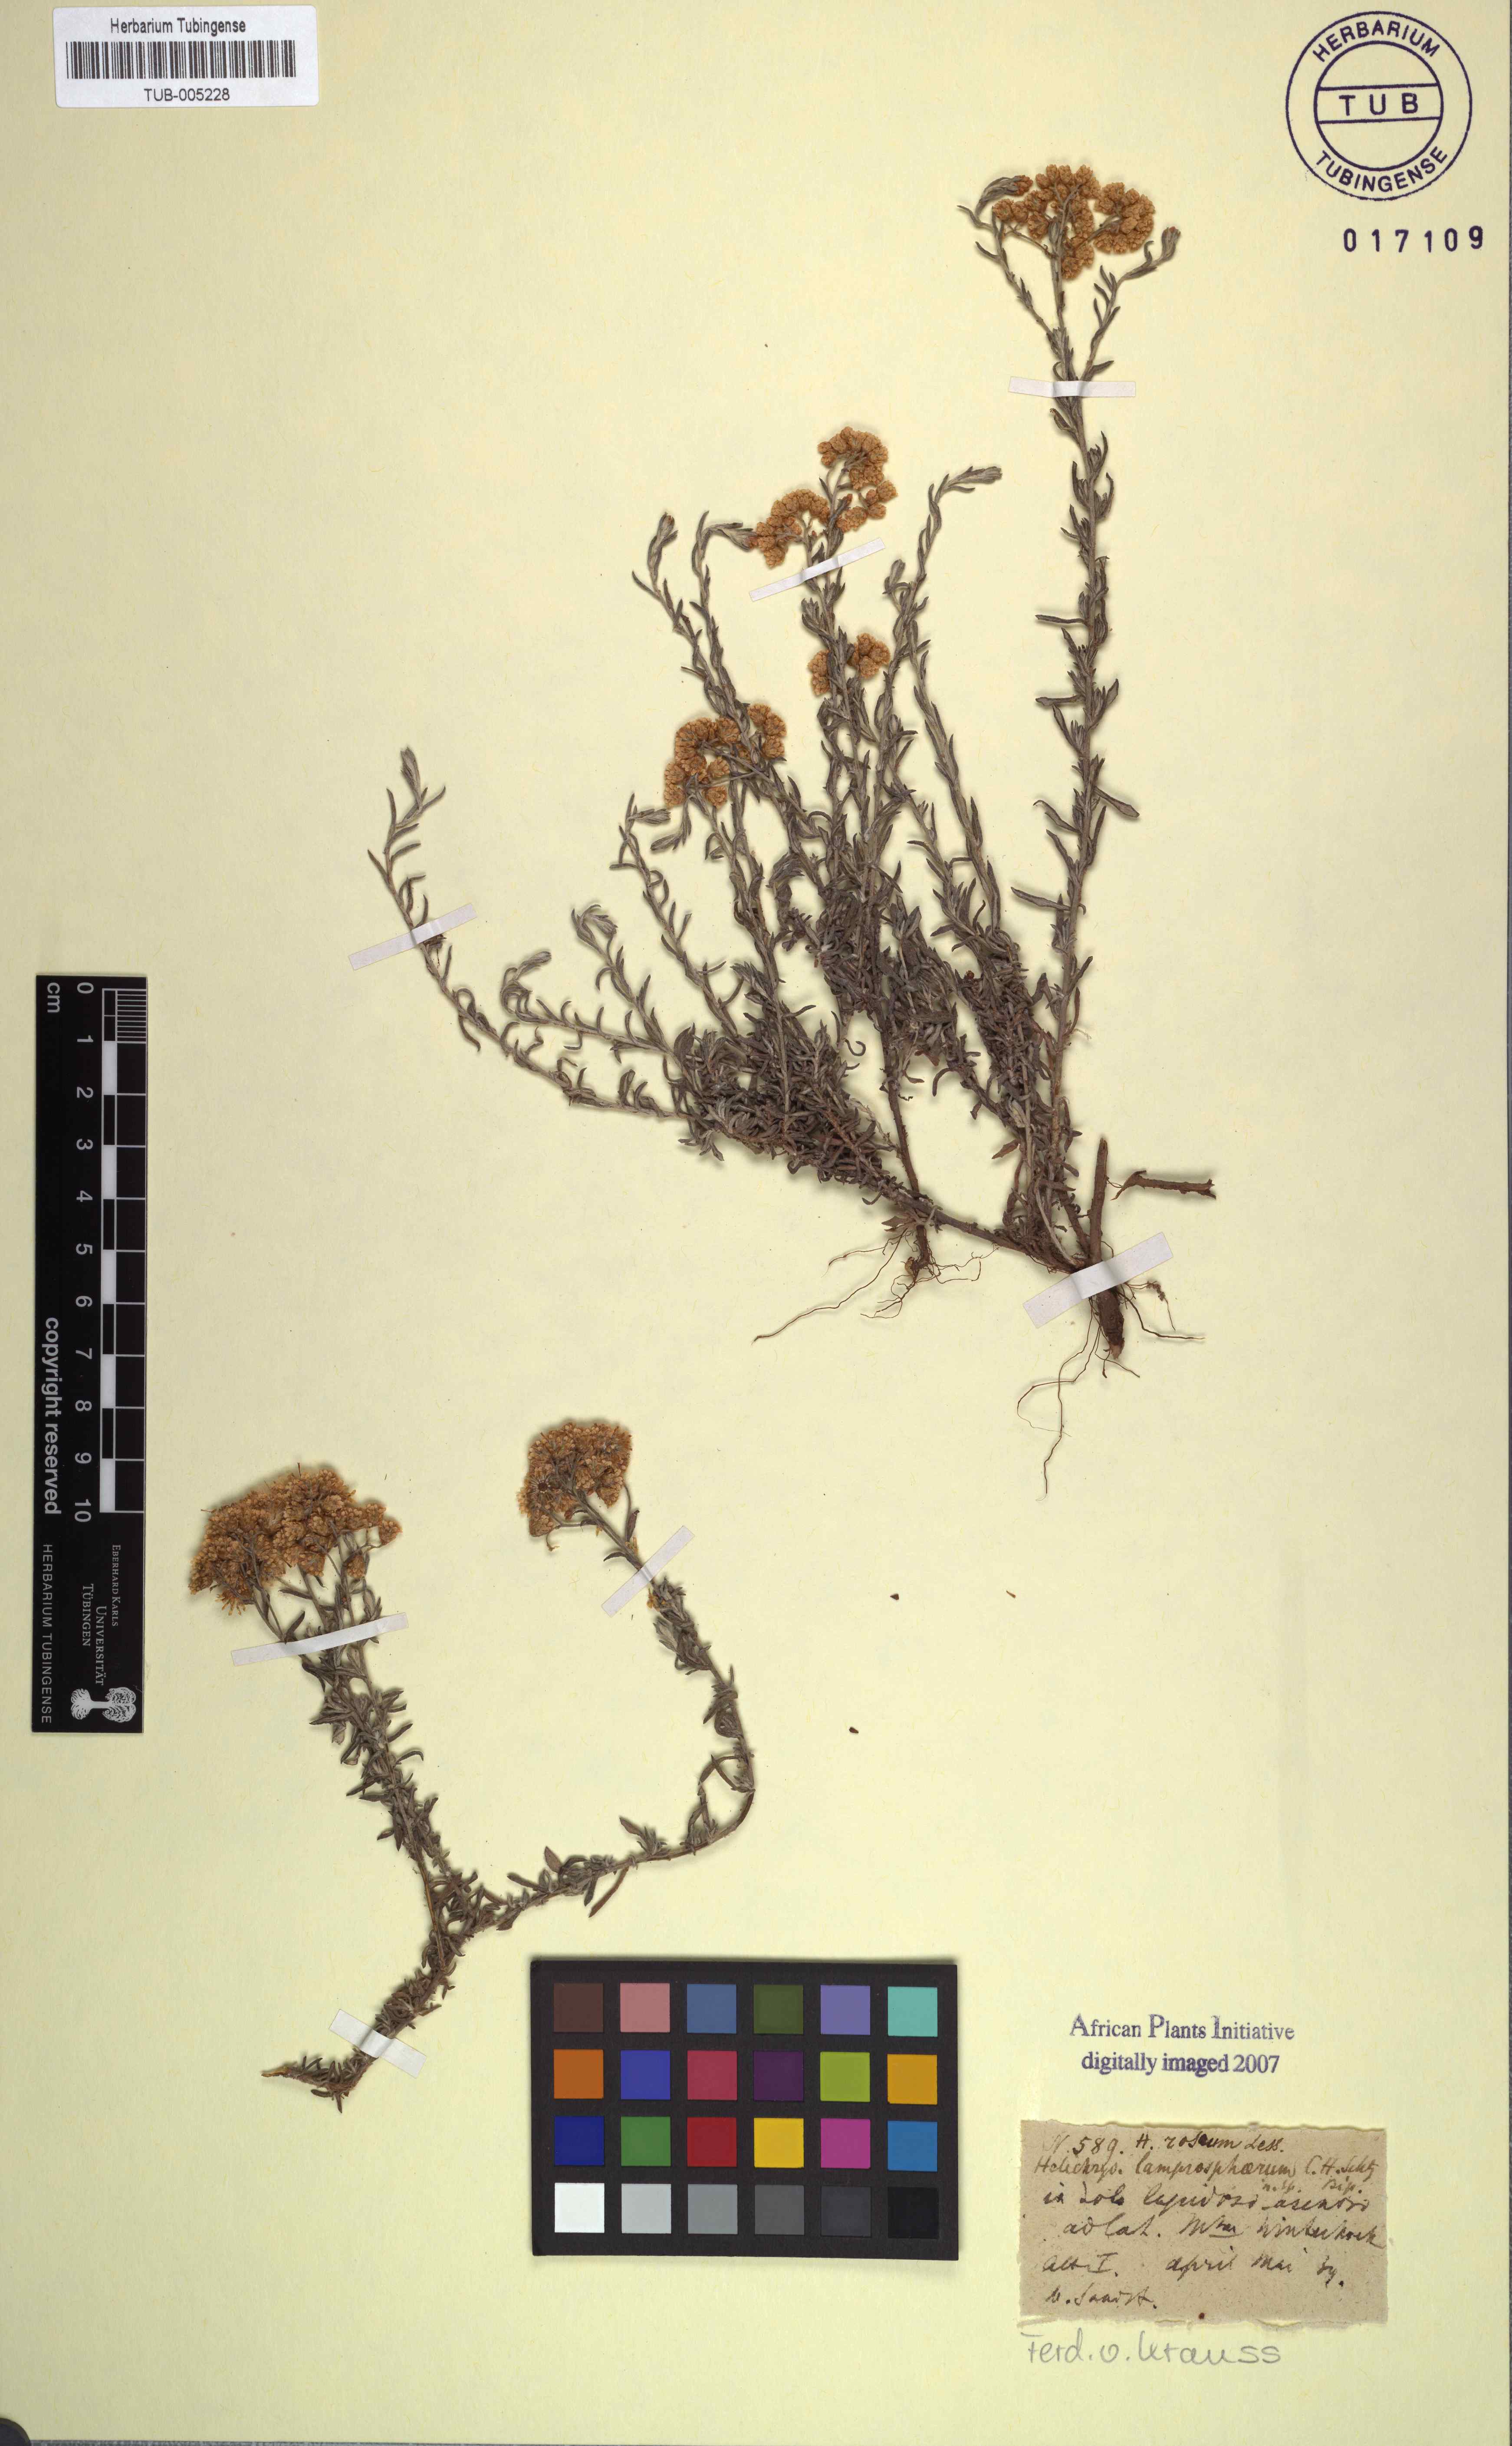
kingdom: Plantae
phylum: Tracheophyta
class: Magnoliopsida
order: Asterales
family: Asteraceae
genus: Helichrysum
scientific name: Helichrysum rosum
